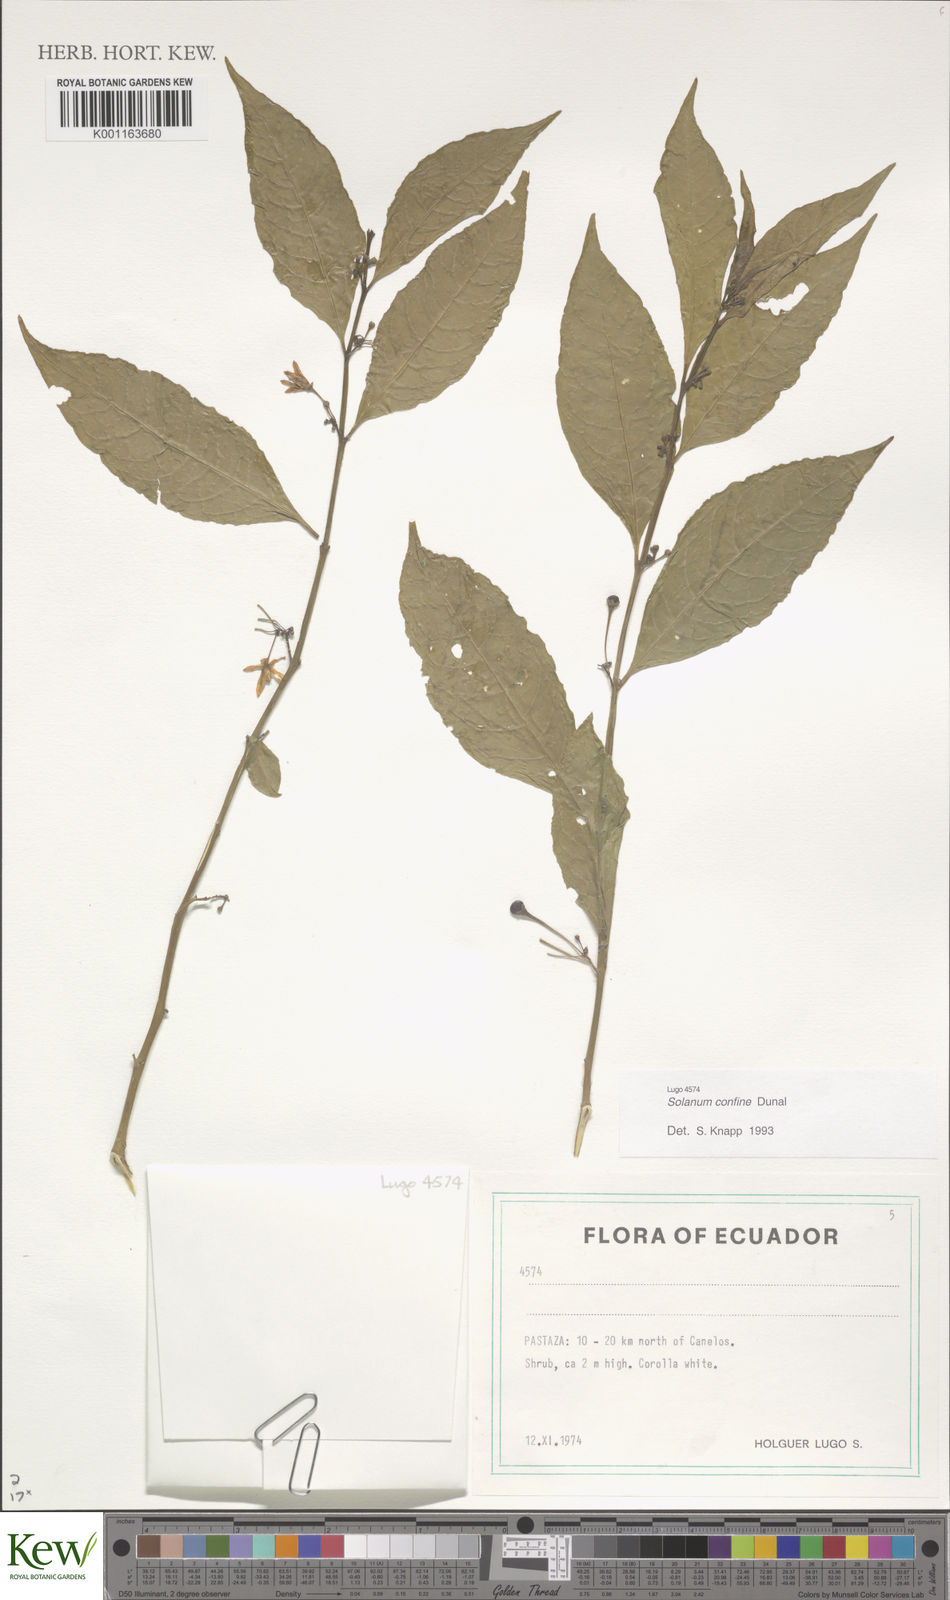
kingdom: Plantae
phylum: Tracheophyta
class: Magnoliopsida
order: Solanales
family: Solanaceae
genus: Solanum
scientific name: Solanum confine
